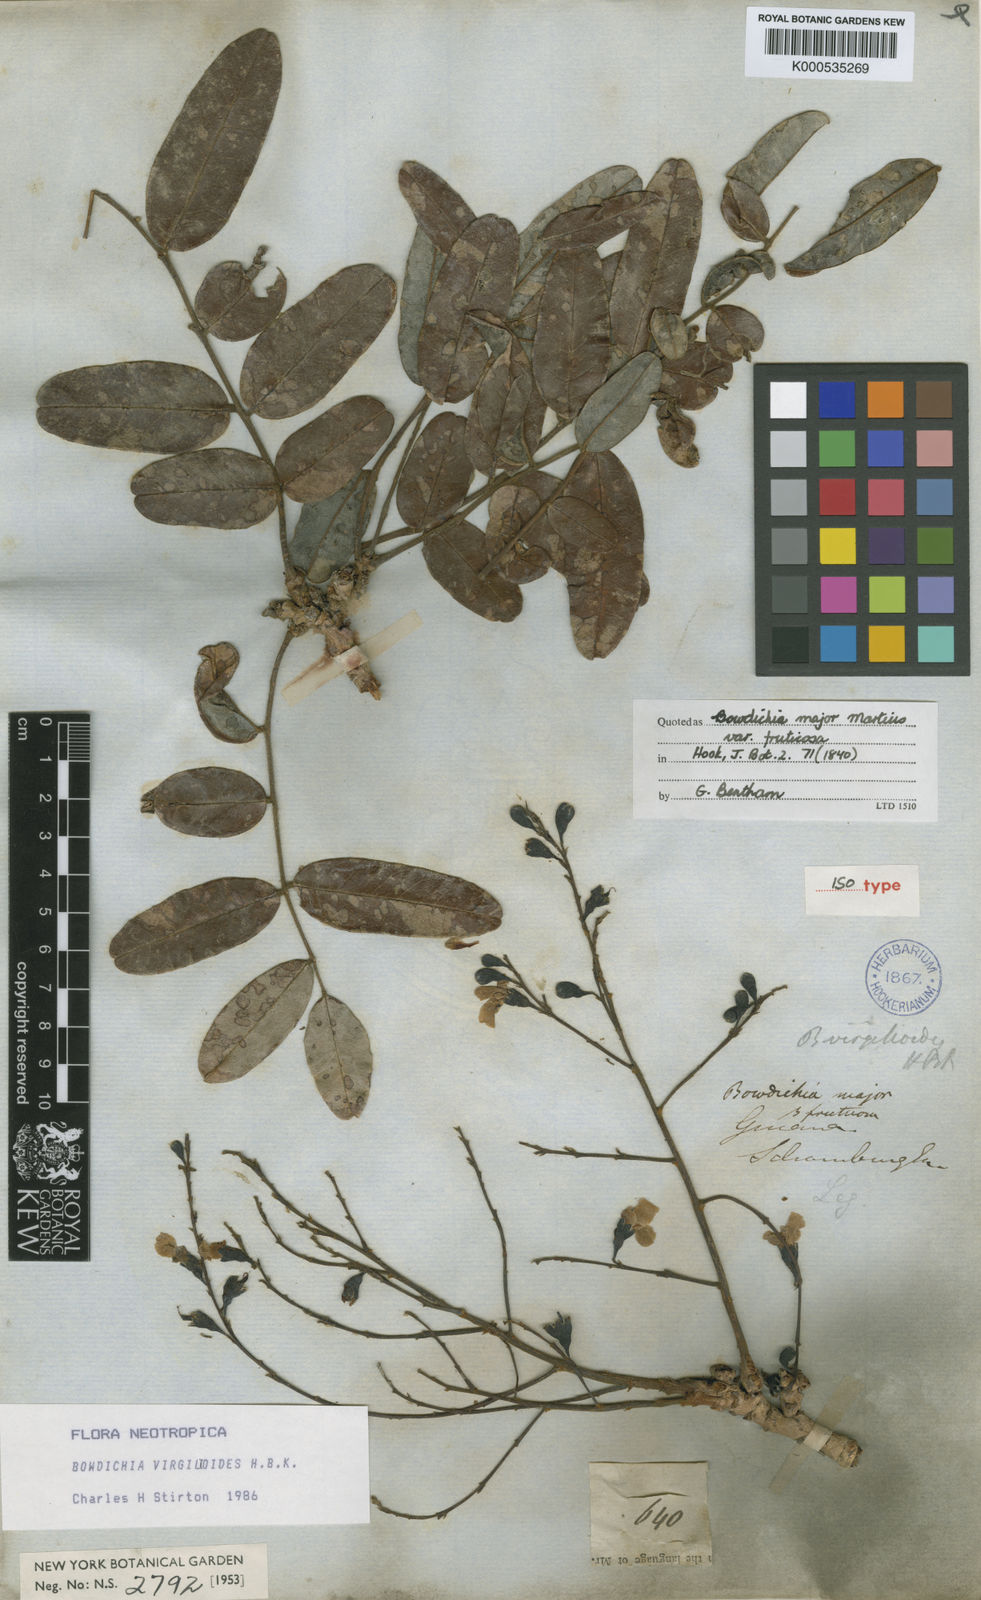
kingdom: Plantae
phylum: Tracheophyta
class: Magnoliopsida
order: Fabales
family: Fabaceae
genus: Bowdichia
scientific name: Bowdichia virgilioides
